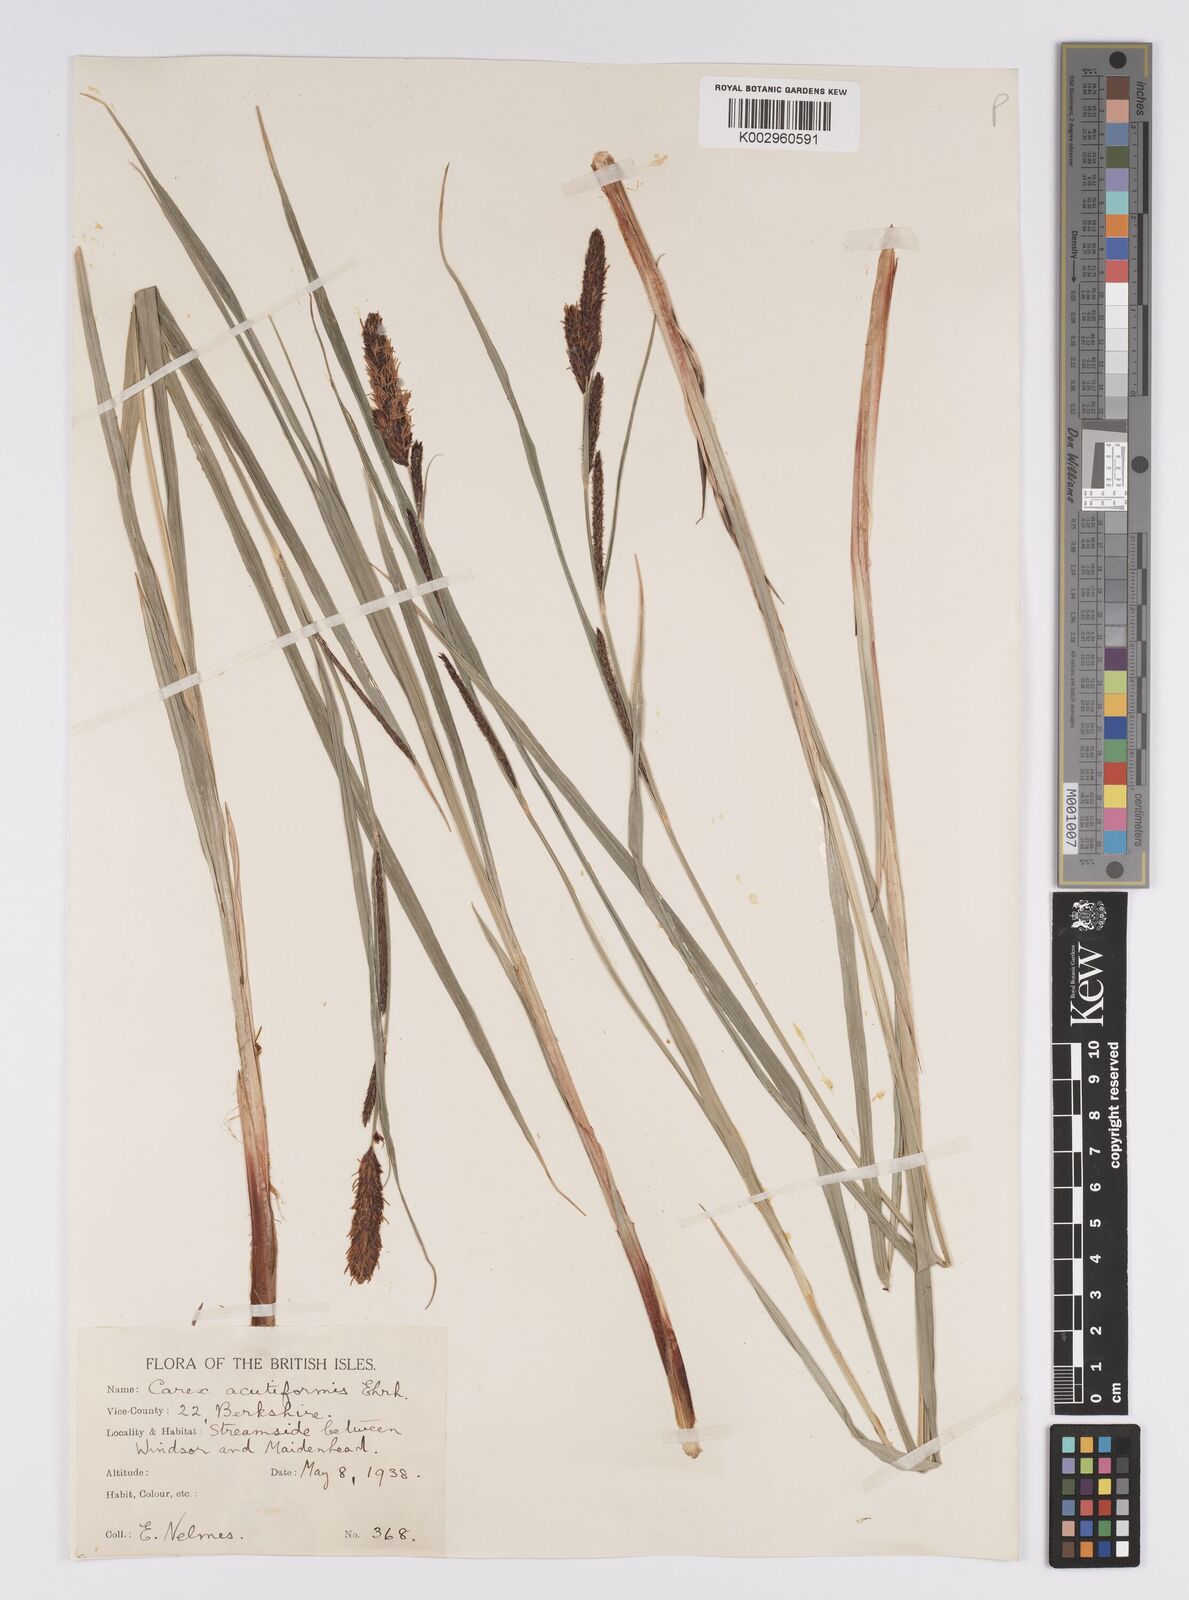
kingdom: Plantae
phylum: Tracheophyta
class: Liliopsida
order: Poales
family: Cyperaceae
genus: Carex
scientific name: Carex acutiformis
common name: Lesser pond-sedge
